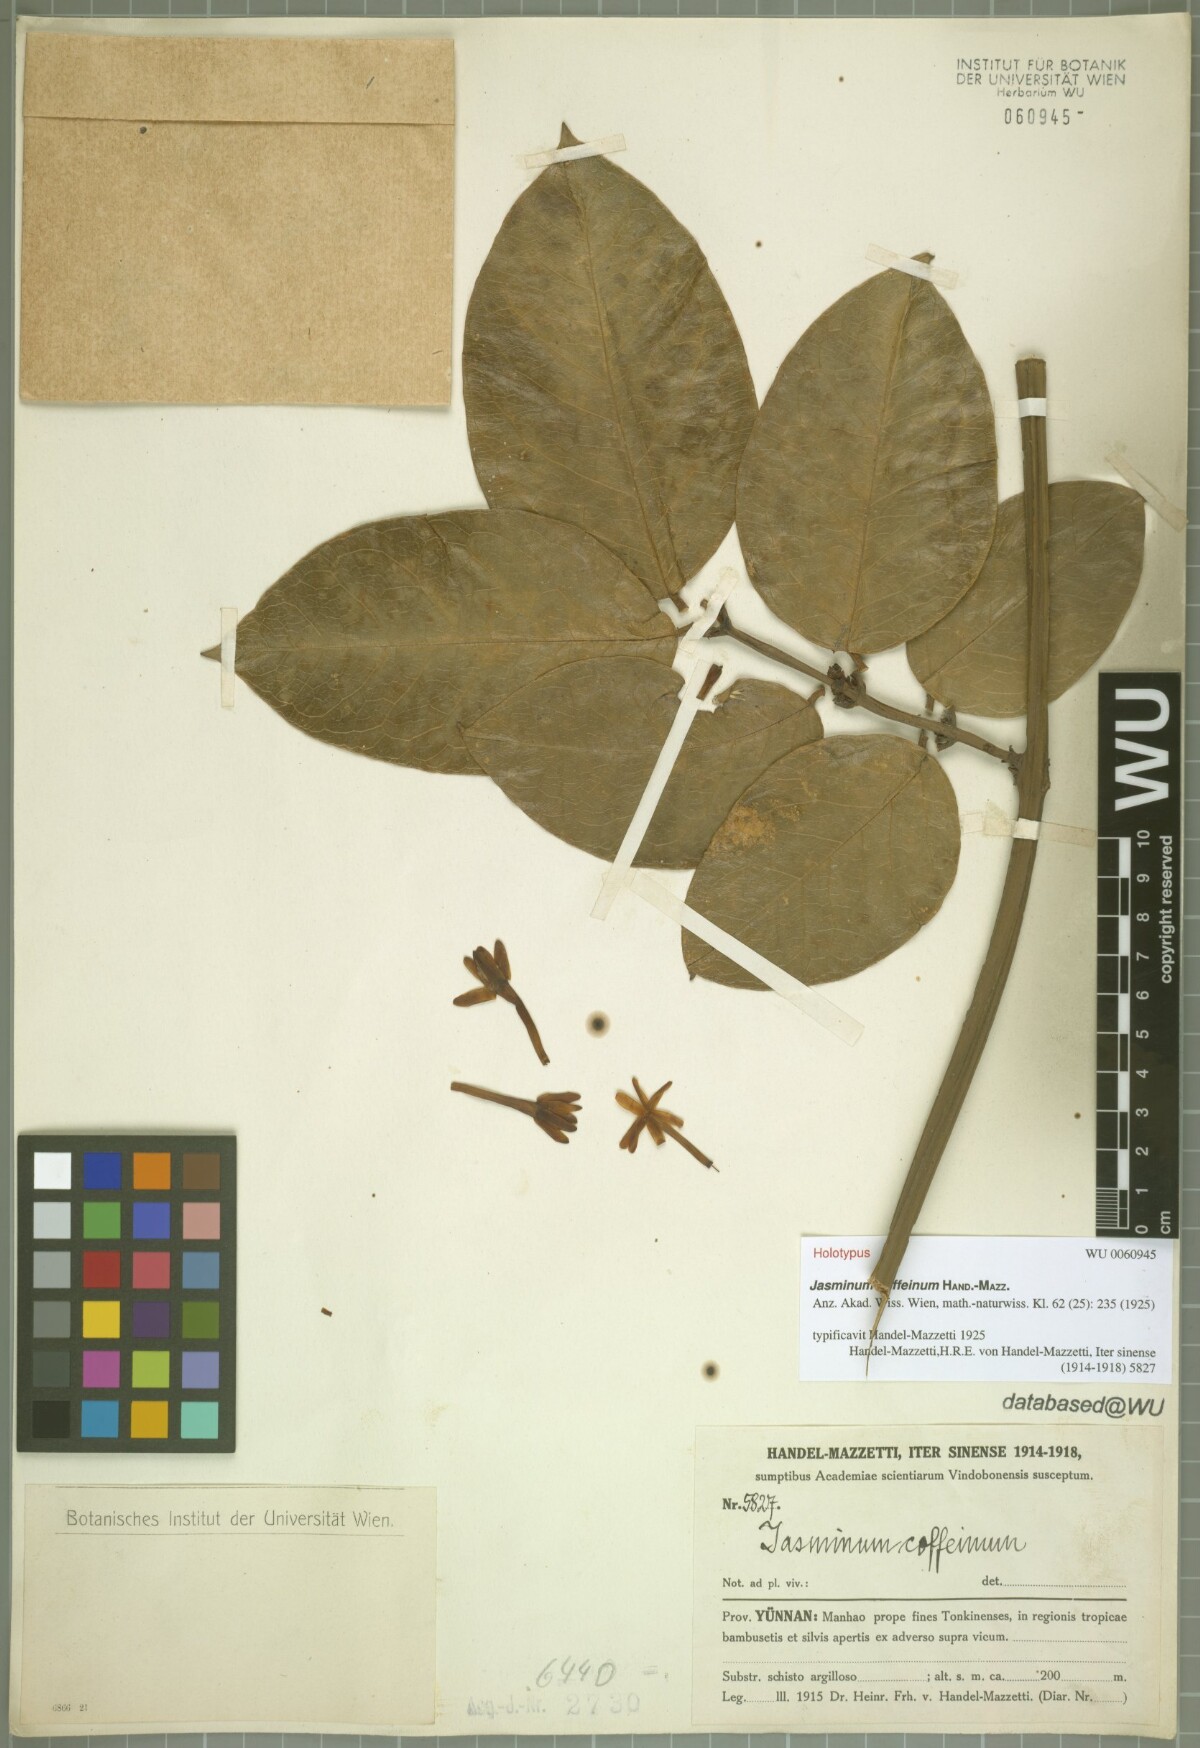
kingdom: Plantae
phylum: Tracheophyta
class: Magnoliopsida
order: Lamiales
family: Oleaceae
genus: Jasminum
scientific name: Jasminum coffeinum
